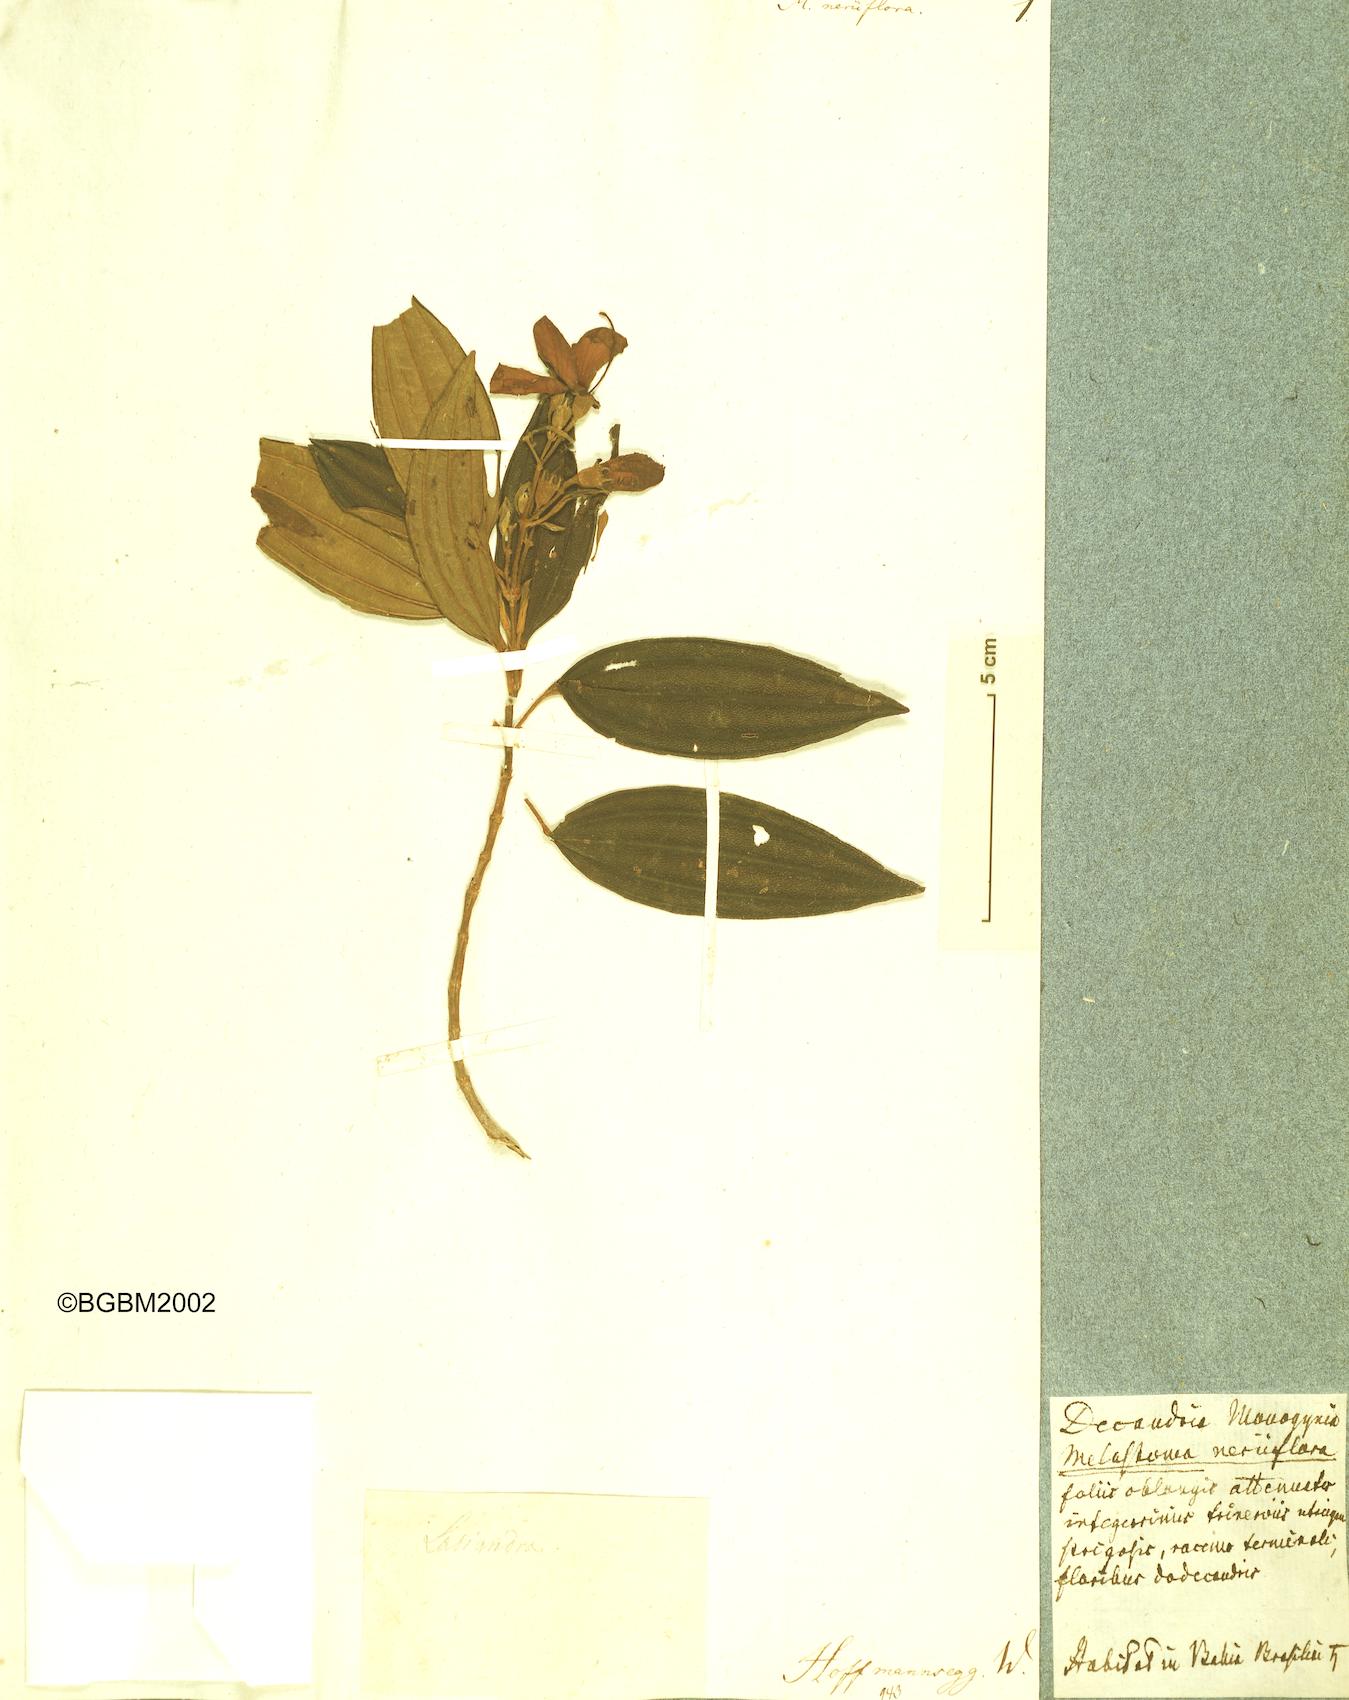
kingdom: Plantae
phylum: Tracheophyta
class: Magnoliopsida
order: Myrtales
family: Melastomataceae
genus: Melastoma
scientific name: Melastoma
